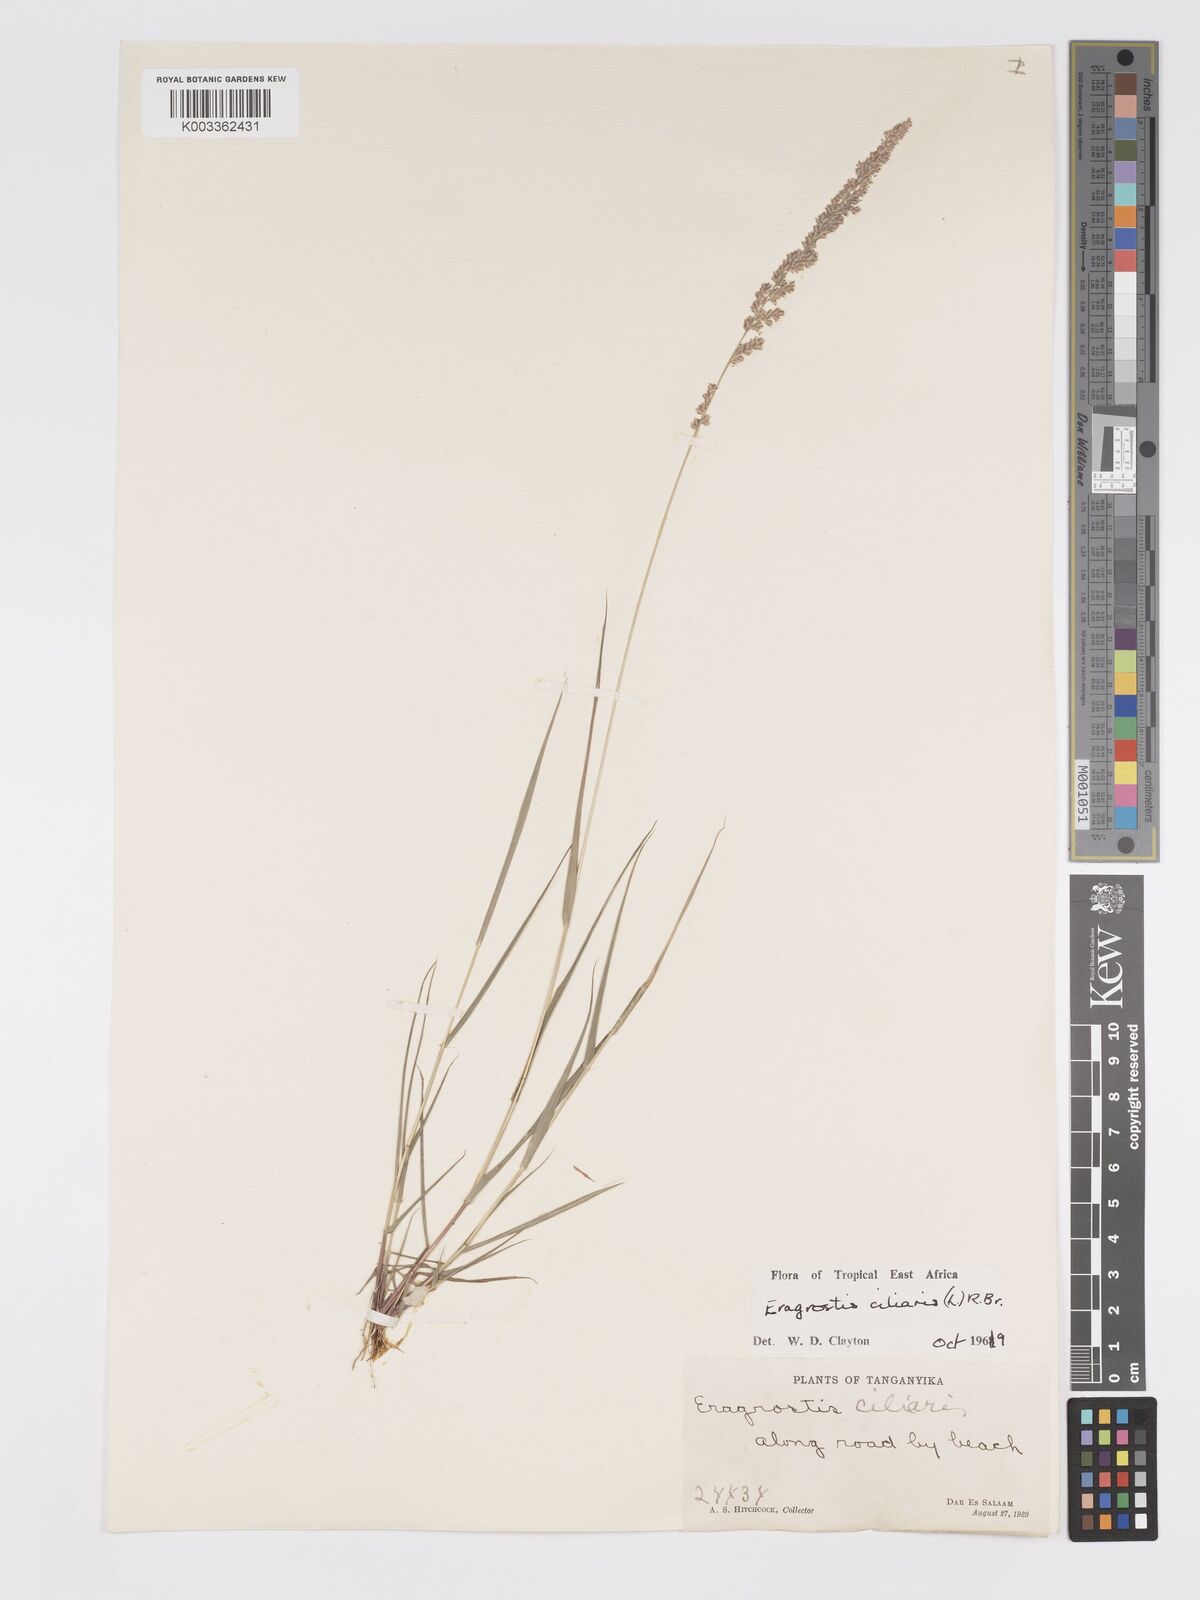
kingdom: Plantae
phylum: Tracheophyta
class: Liliopsida
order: Poales
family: Poaceae
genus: Eragrostis
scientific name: Eragrostis ciliaris
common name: Gophertail lovegrass
